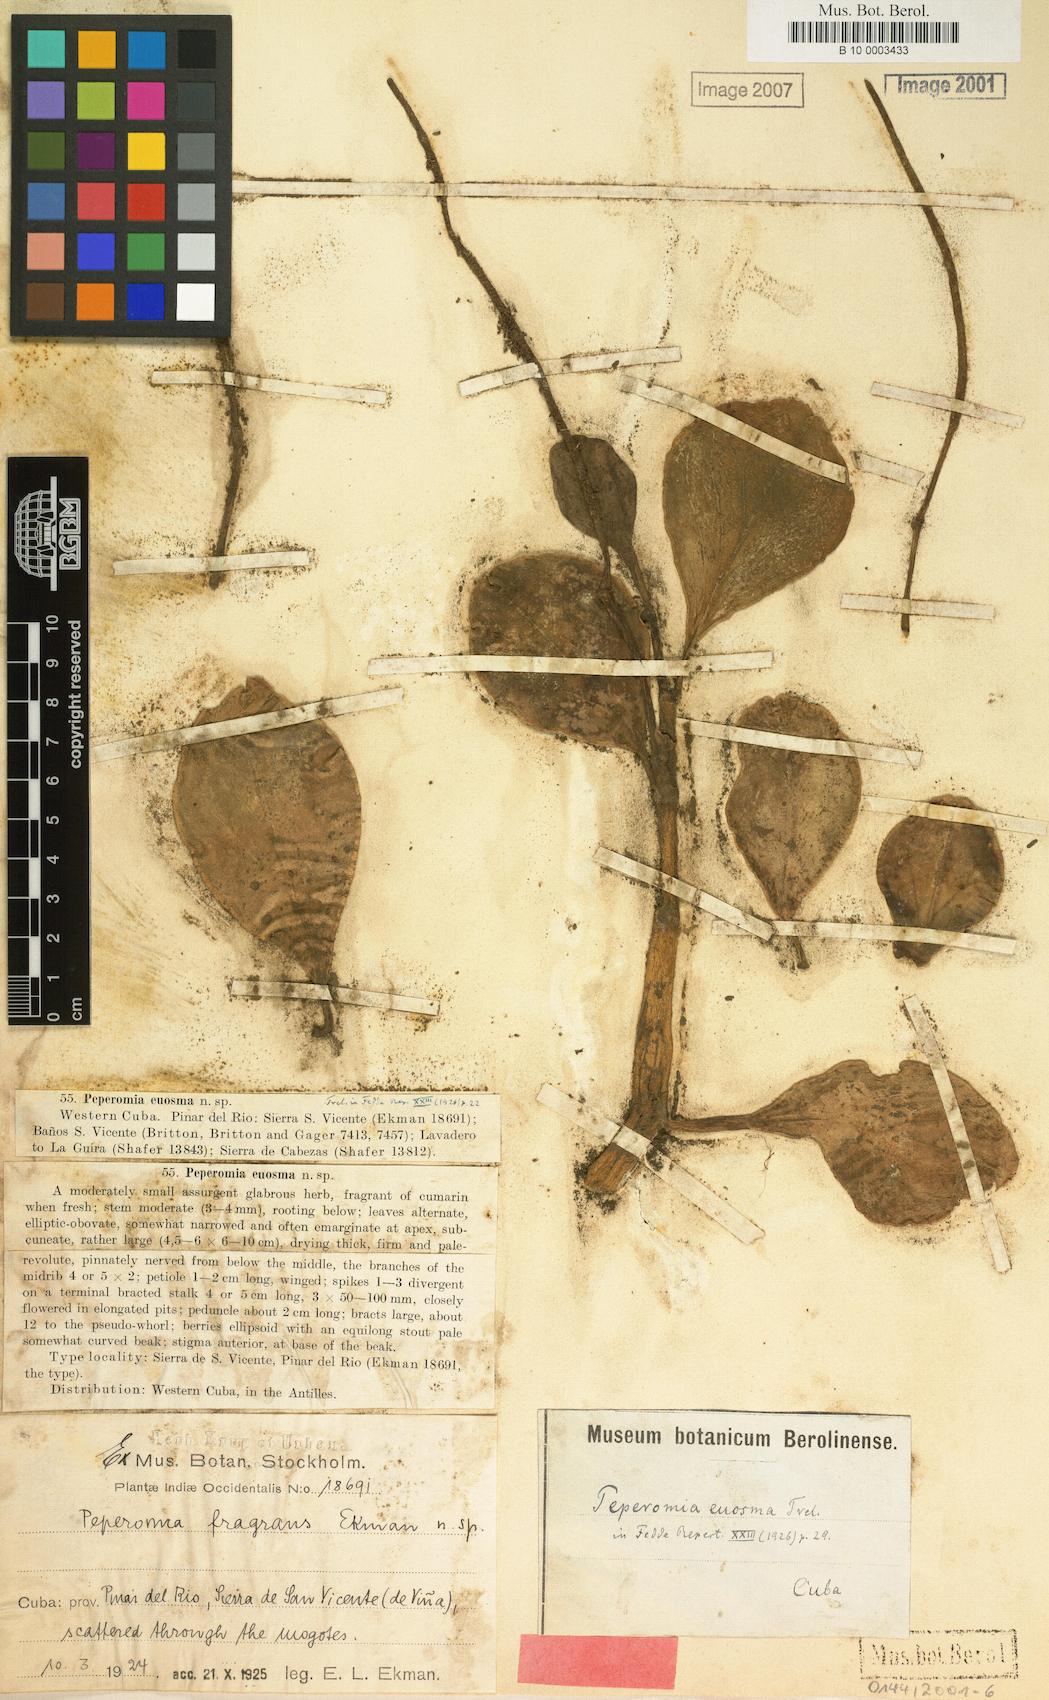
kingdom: Plantae
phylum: Tracheophyta
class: Magnoliopsida
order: Piperales
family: Piperaceae
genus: Peperomia
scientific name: Peperomia crassicaulis
